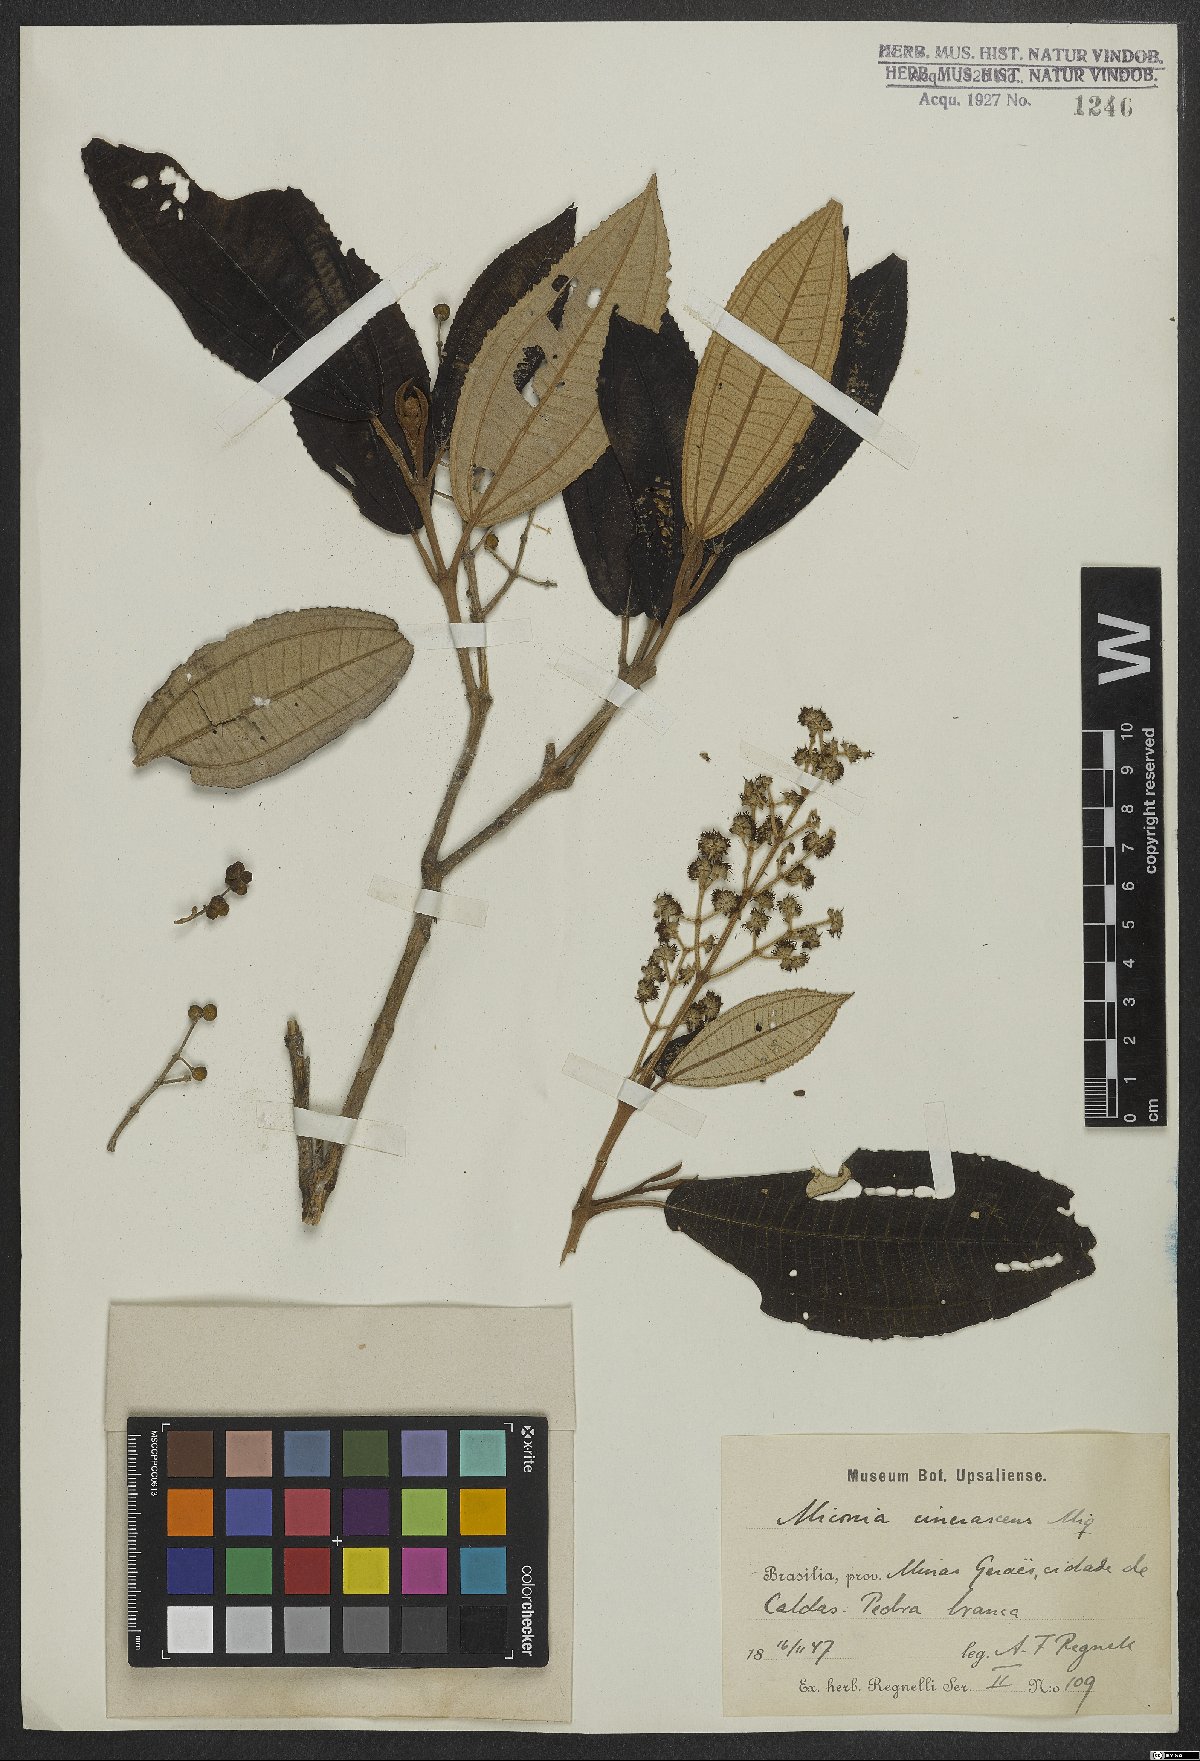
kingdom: Plantae
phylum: Tracheophyta
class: Magnoliopsida
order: Myrtales
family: Melastomataceae
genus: Miconia
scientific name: Miconia cinerascens
